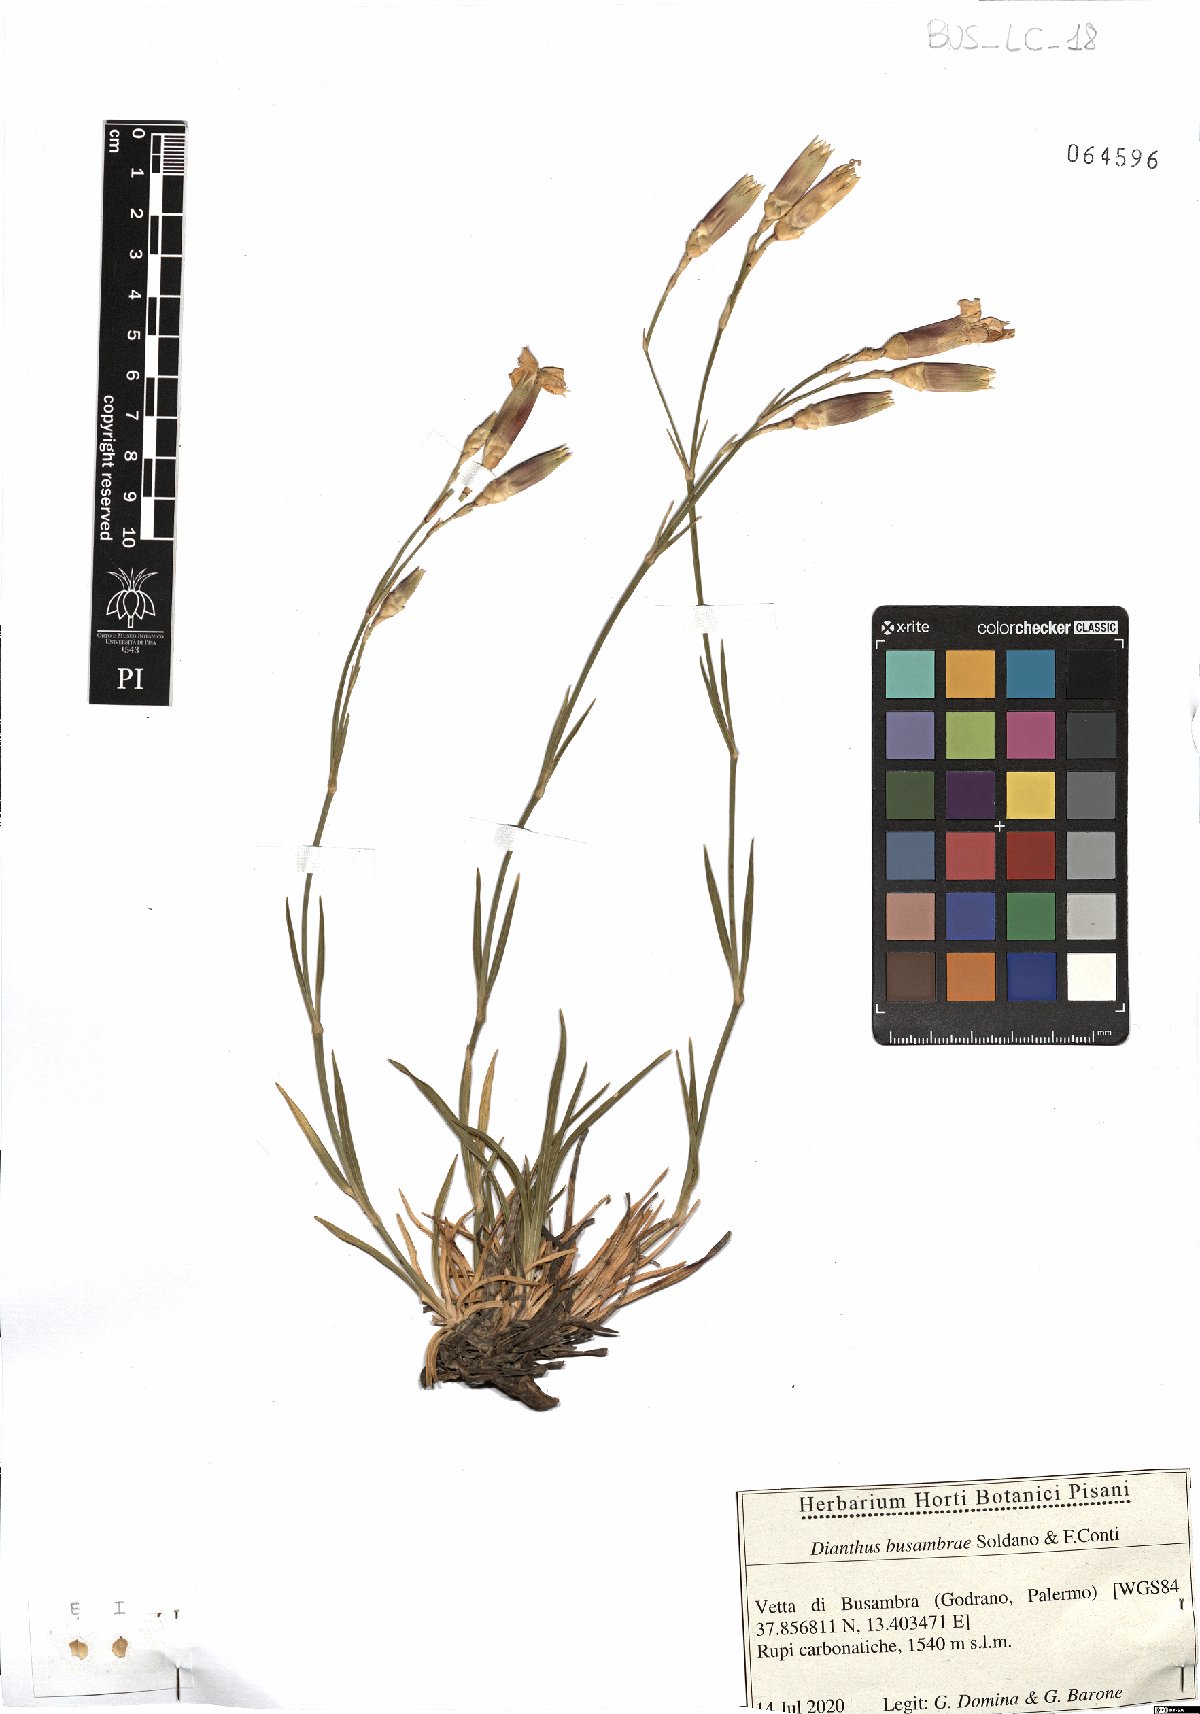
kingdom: Plantae
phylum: Tracheophyta
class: Magnoliopsida
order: Caryophyllales
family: Caryophyllaceae
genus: Dianthus
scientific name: Dianthus busambrae
